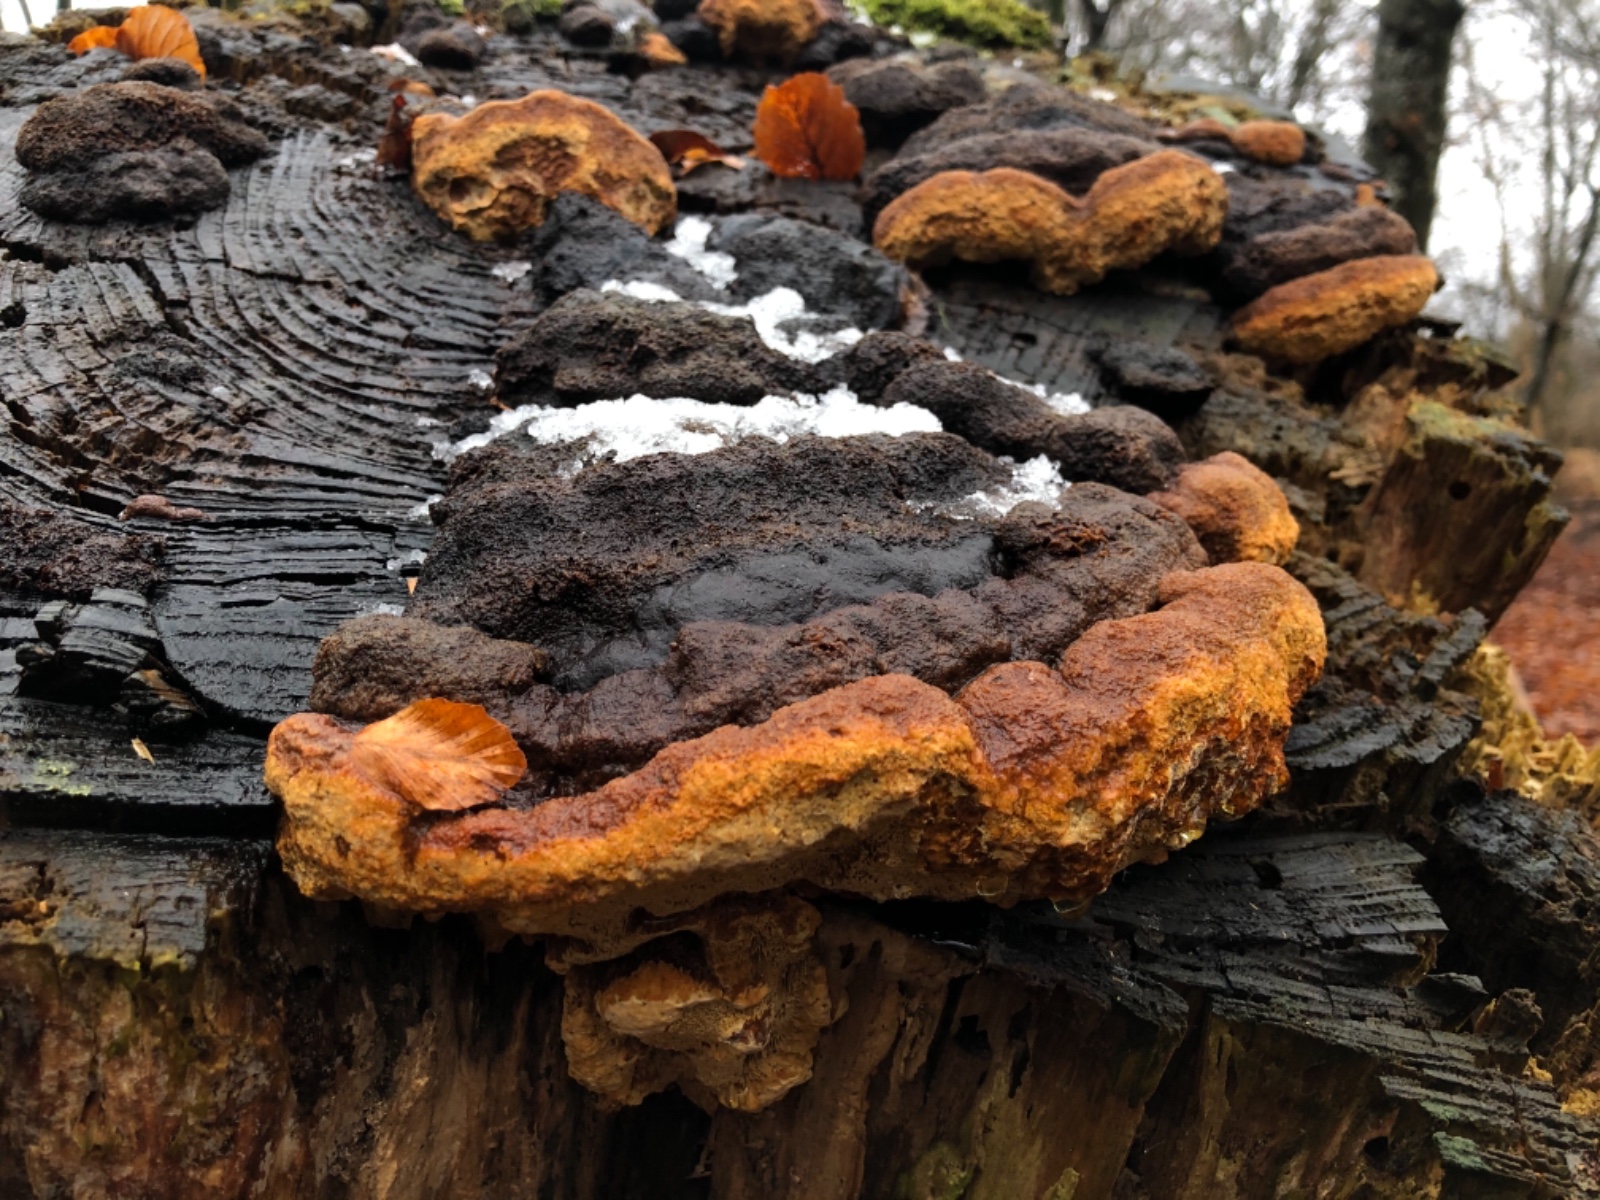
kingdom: Fungi
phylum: Basidiomycota
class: Agaricomycetes
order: Gloeophyllales
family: Gloeophyllaceae
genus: Gloeophyllum
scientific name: Gloeophyllum odoratum
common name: duftende korkhat
